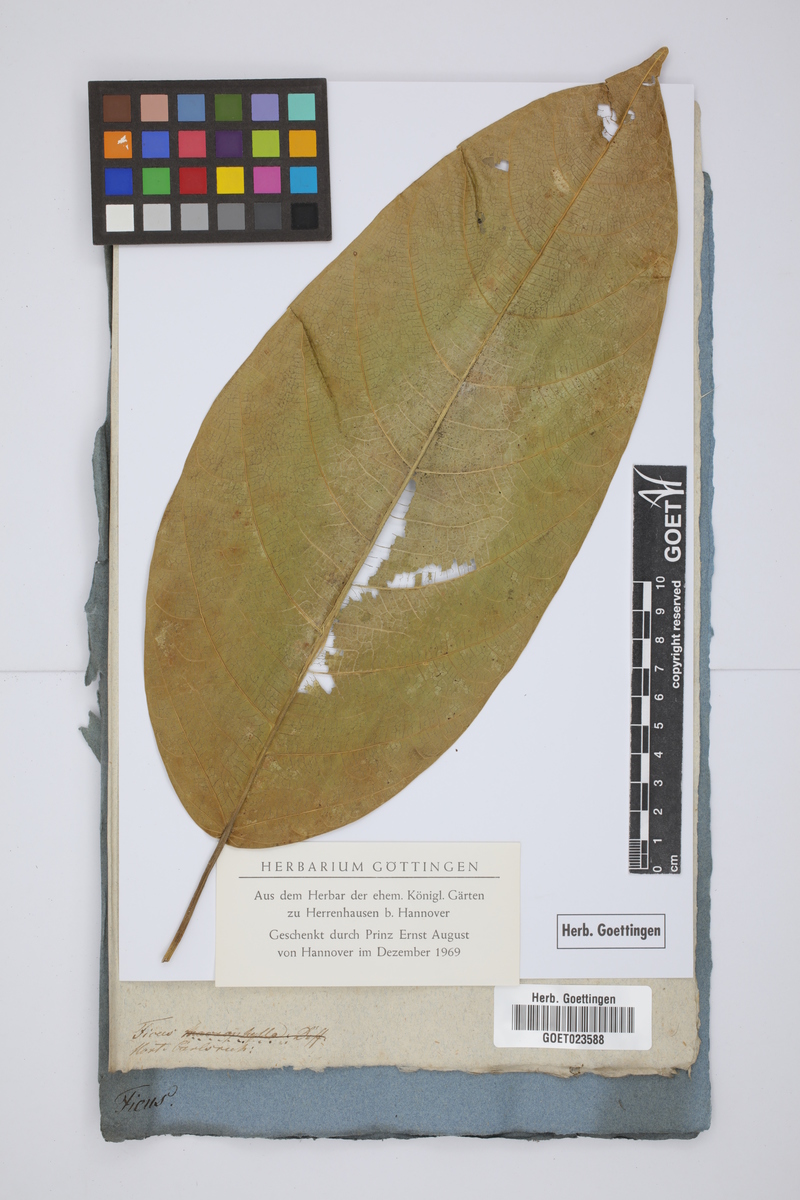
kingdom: Plantae
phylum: Tracheophyta
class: Magnoliopsida
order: Rosales
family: Moraceae
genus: Ficus
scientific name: Ficus
